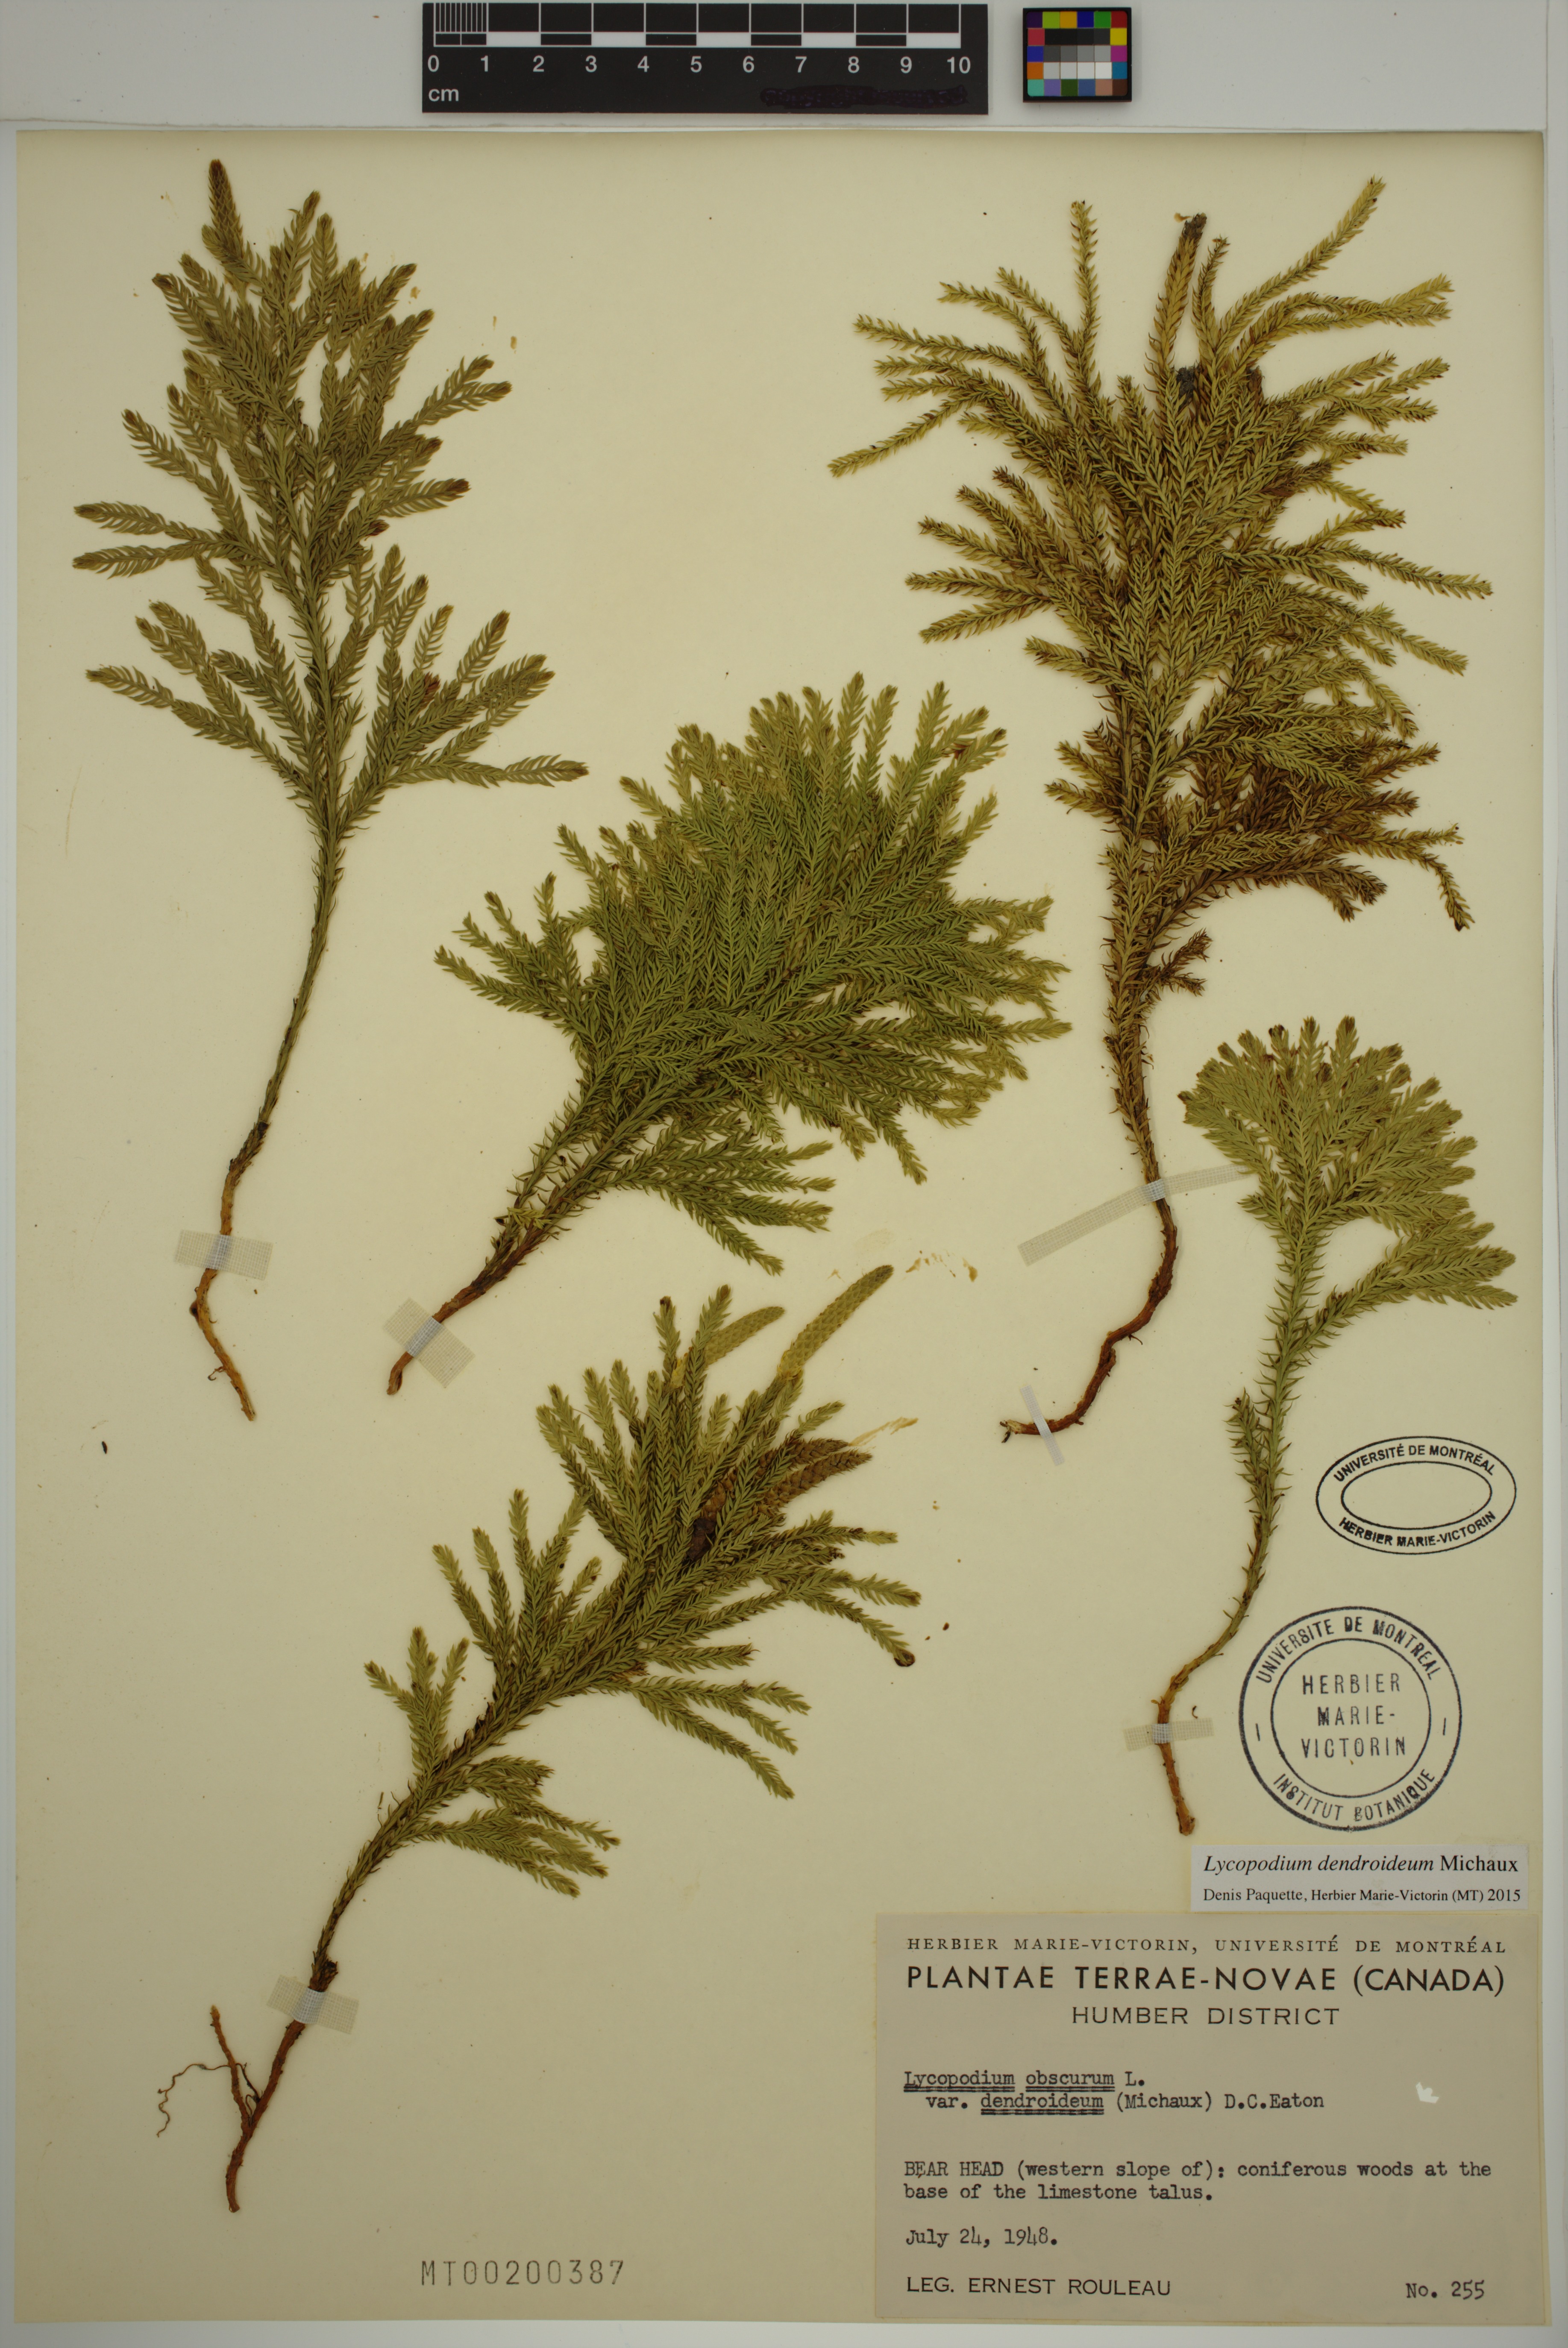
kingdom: Plantae
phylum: Tracheophyta
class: Lycopodiopsida
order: Lycopodiales
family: Lycopodiaceae
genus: Dendrolycopodium
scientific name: Dendrolycopodium dendroideum
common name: Northern tree-clubmoss
